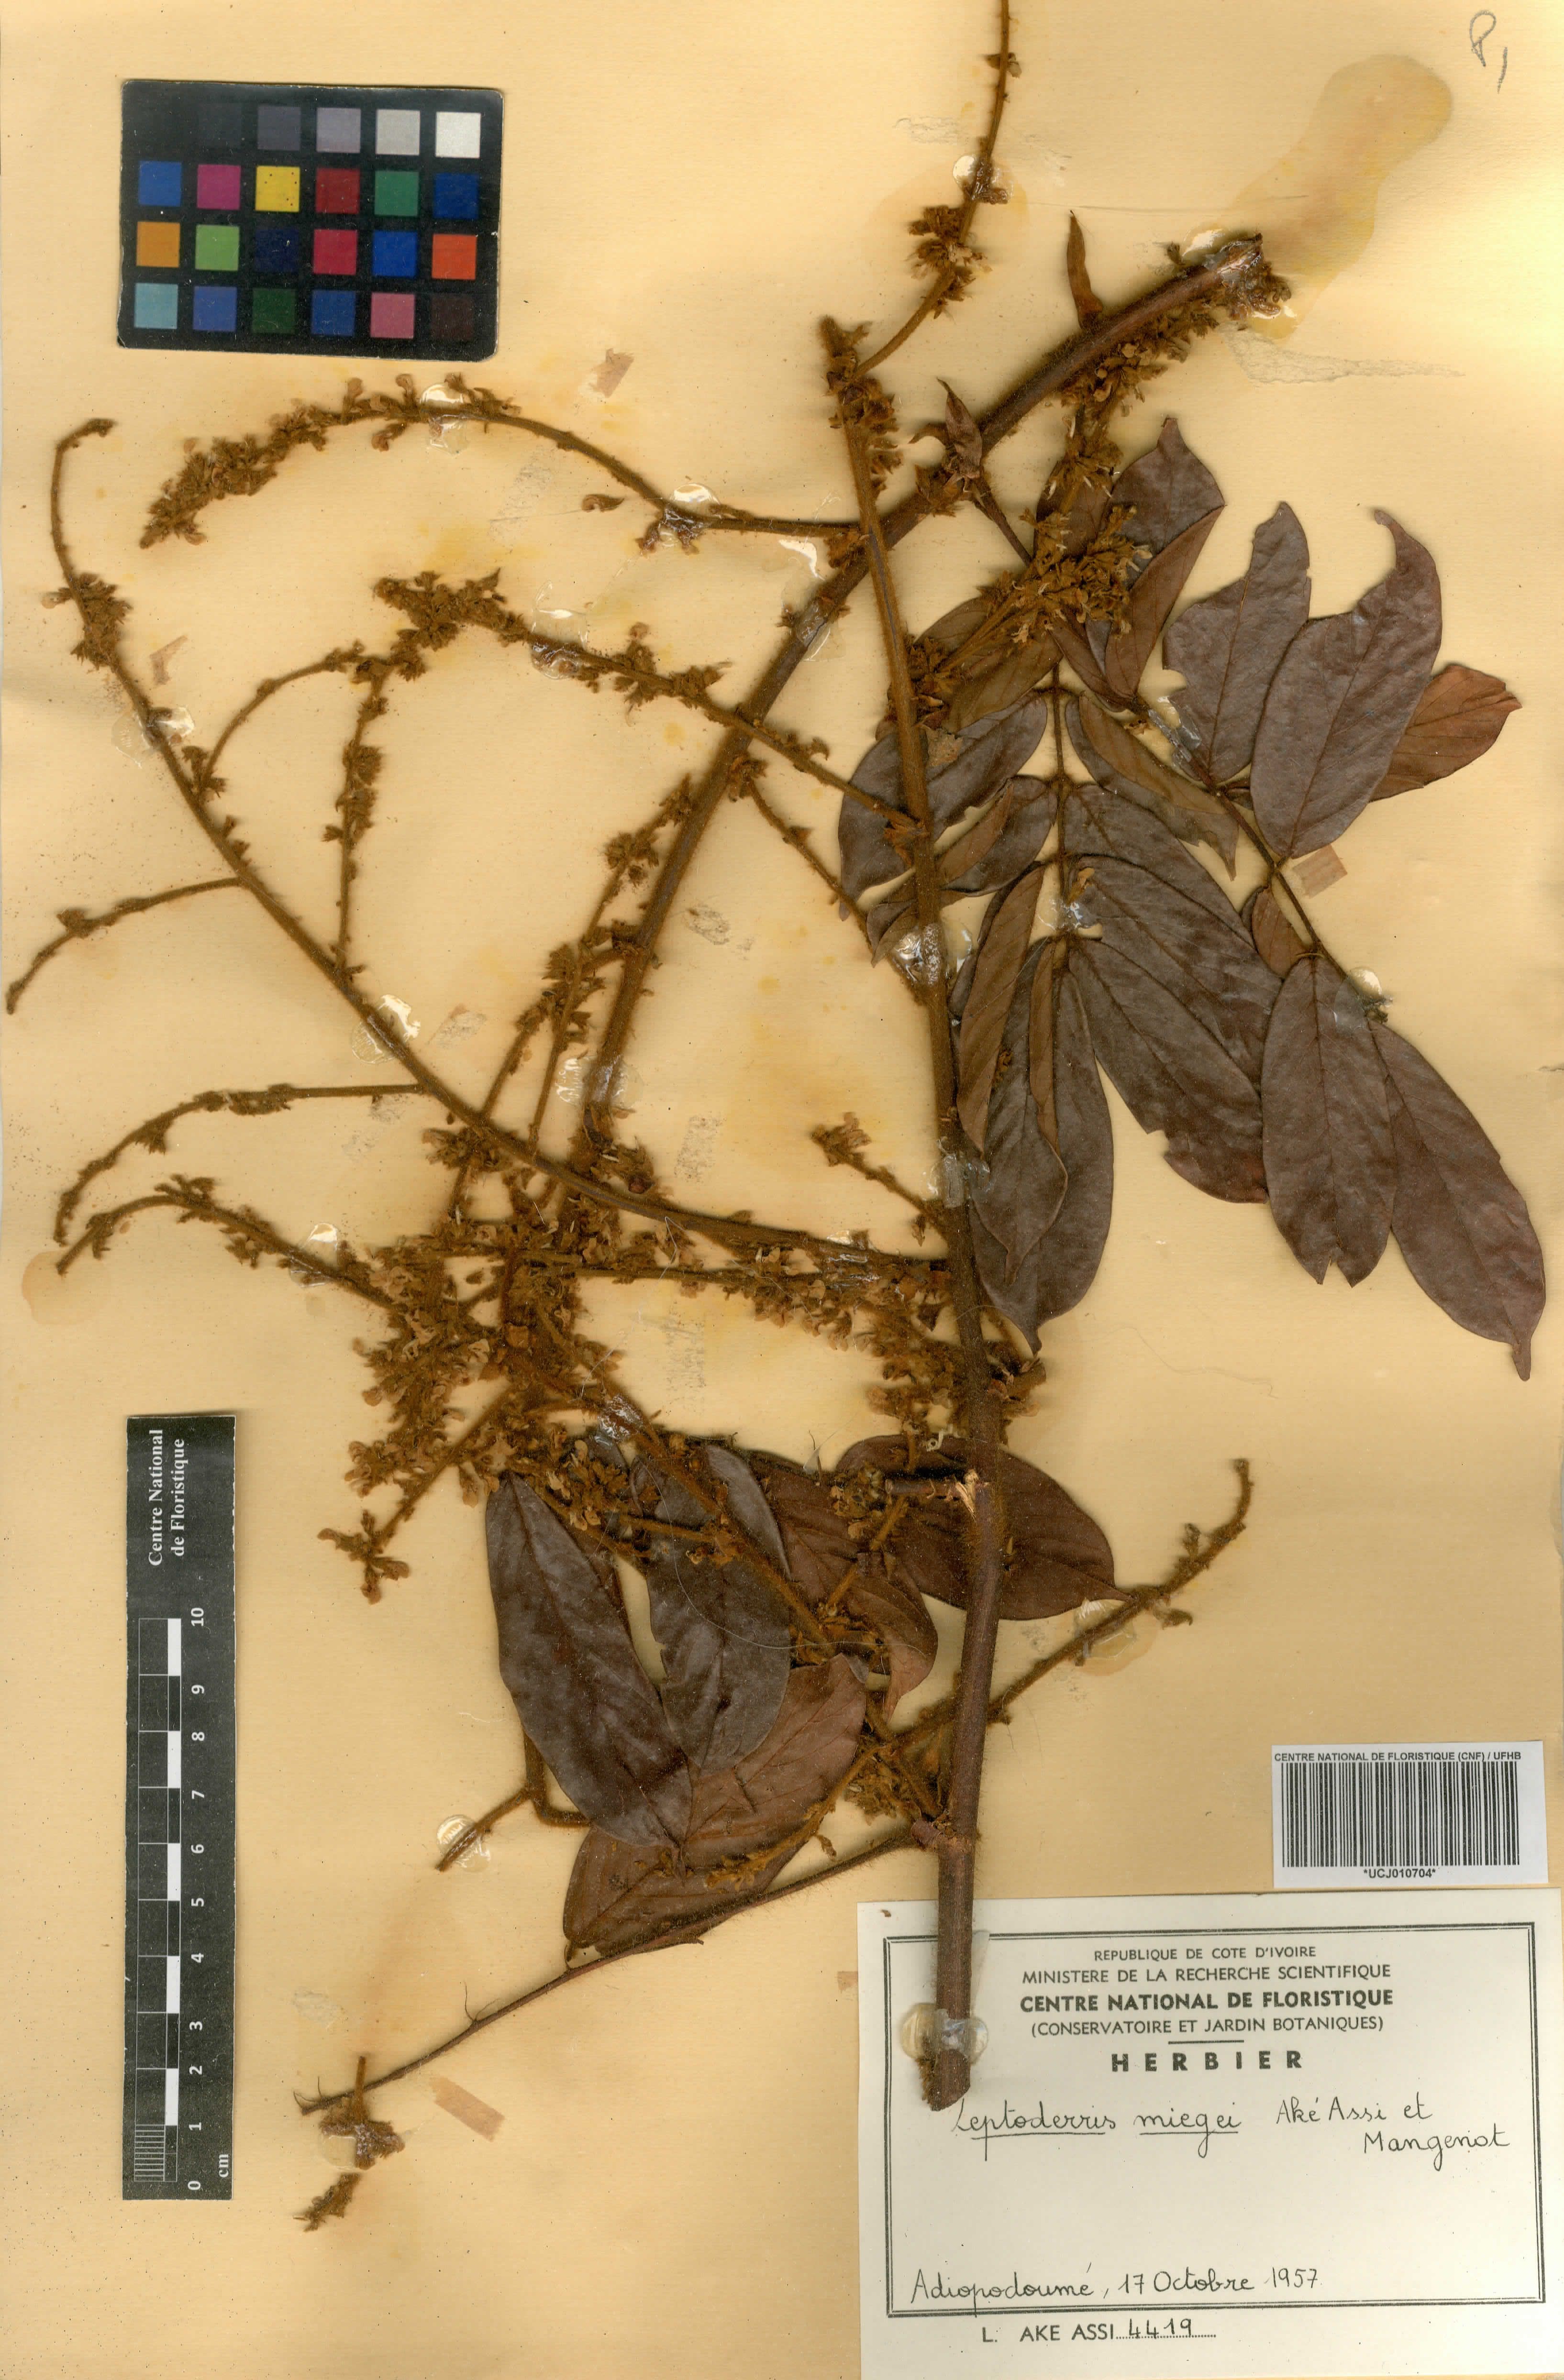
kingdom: Plantae
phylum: Tracheophyta
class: Magnoliopsida
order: Fabales
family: Fabaceae
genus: Leptoderris
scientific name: Leptoderris miegei
